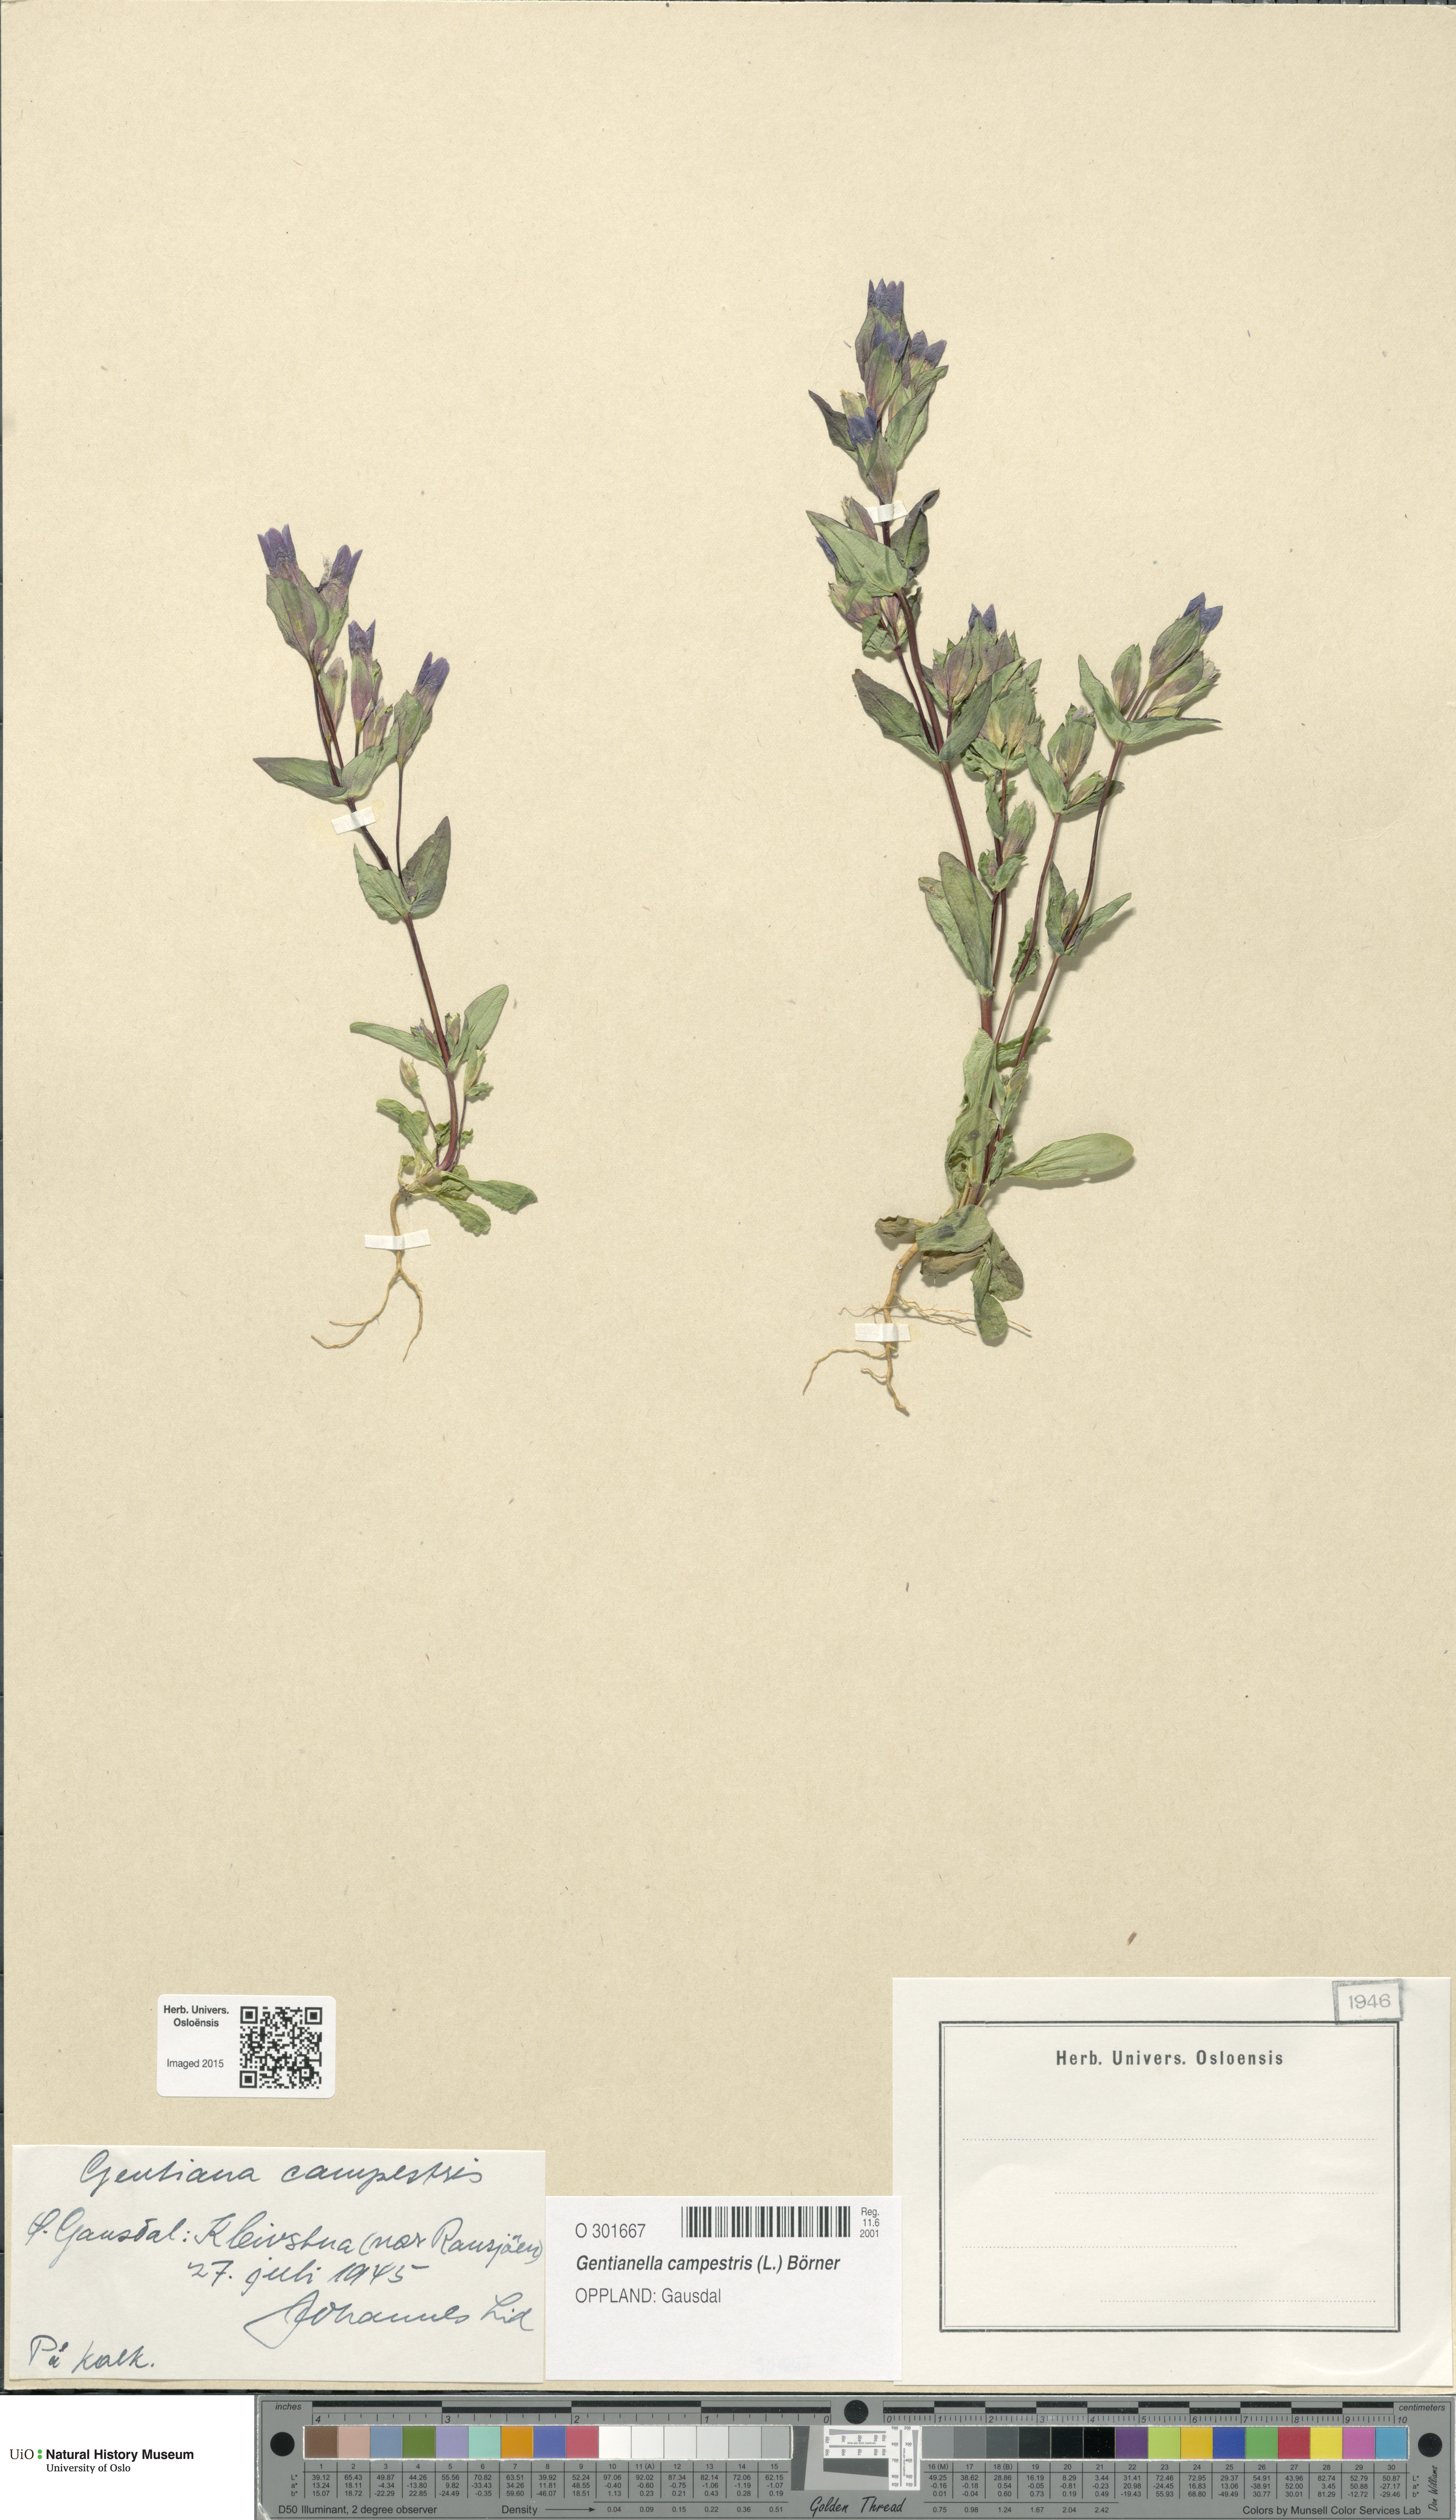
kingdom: Plantae
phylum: Tracheophyta
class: Magnoliopsida
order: Gentianales
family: Gentianaceae
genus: Gentianella
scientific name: Gentianella campestris
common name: Field gentian
